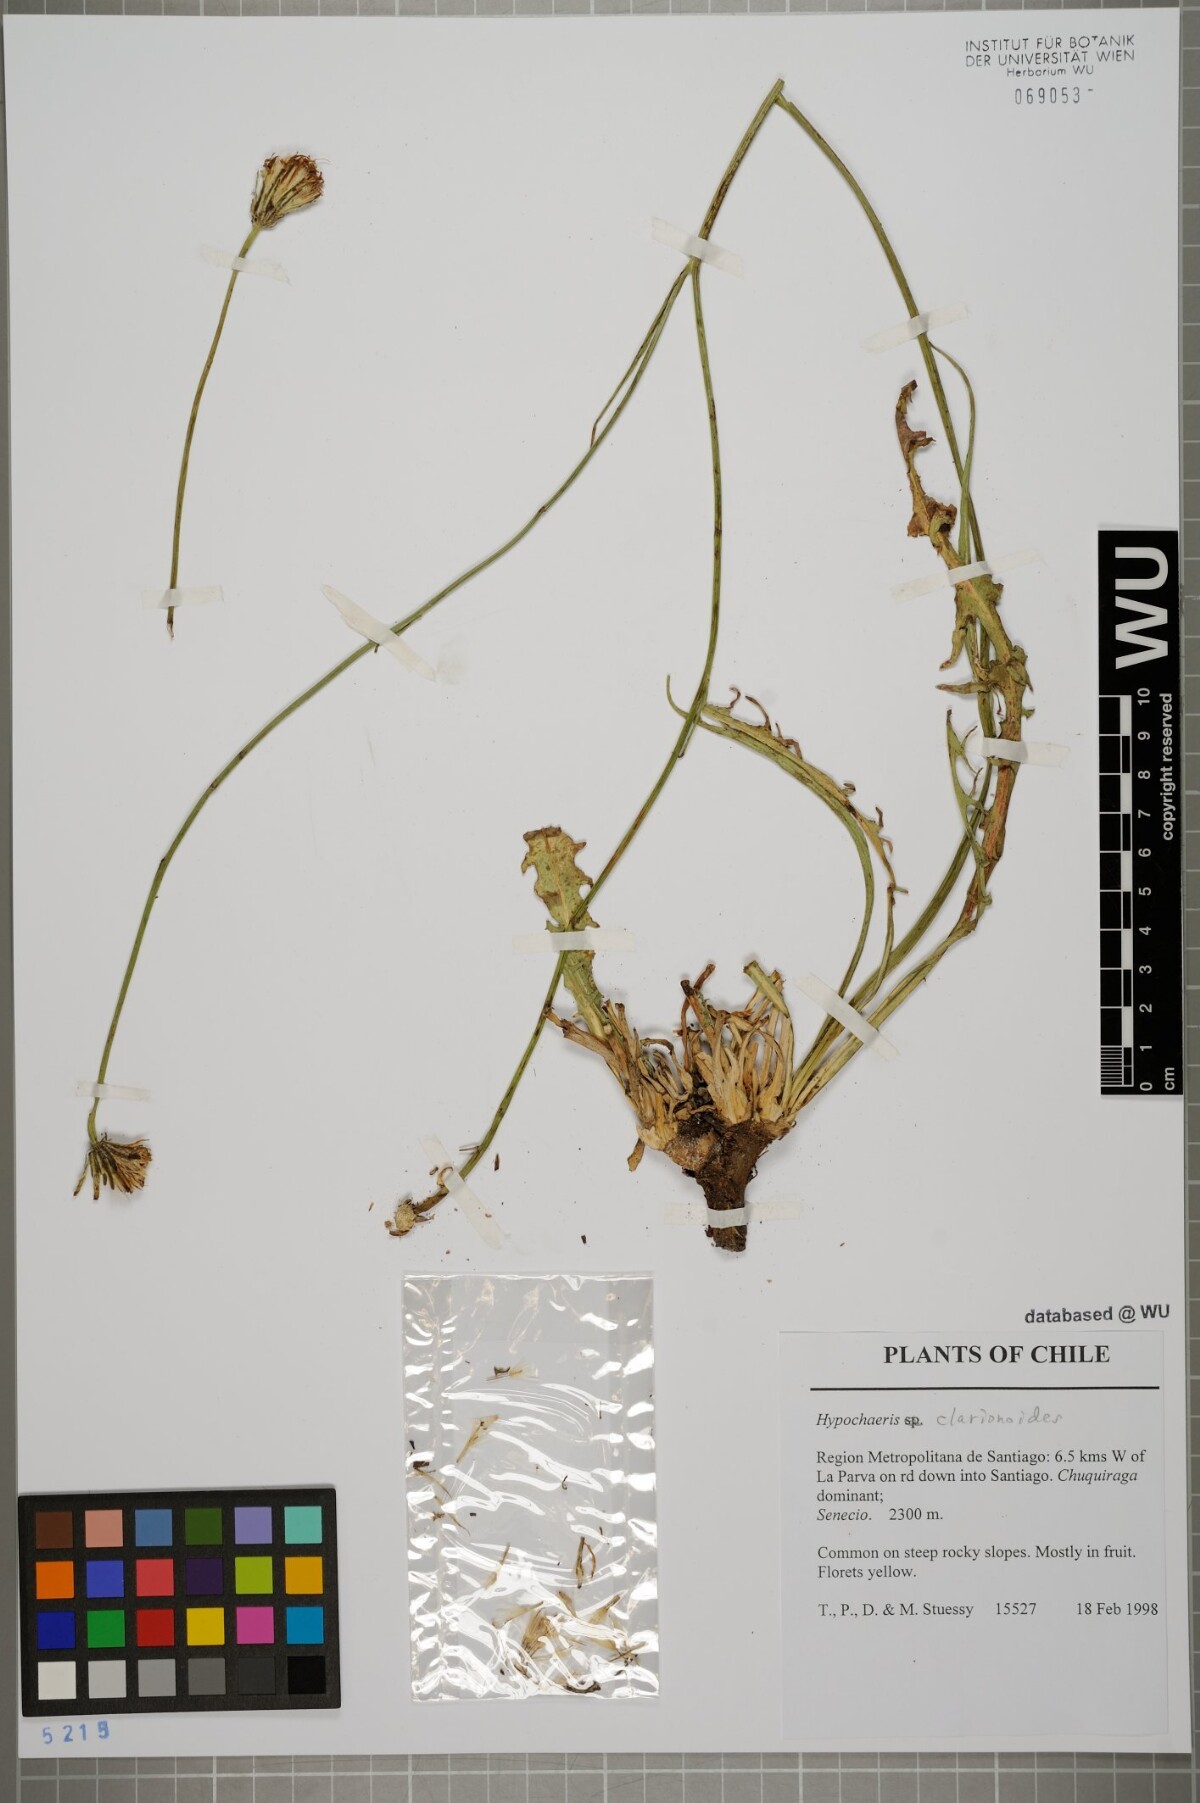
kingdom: Plantae
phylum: Tracheophyta
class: Magnoliopsida
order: Asterales
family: Asteraceae
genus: Hypochaeris
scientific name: Hypochaeris clarionoides
